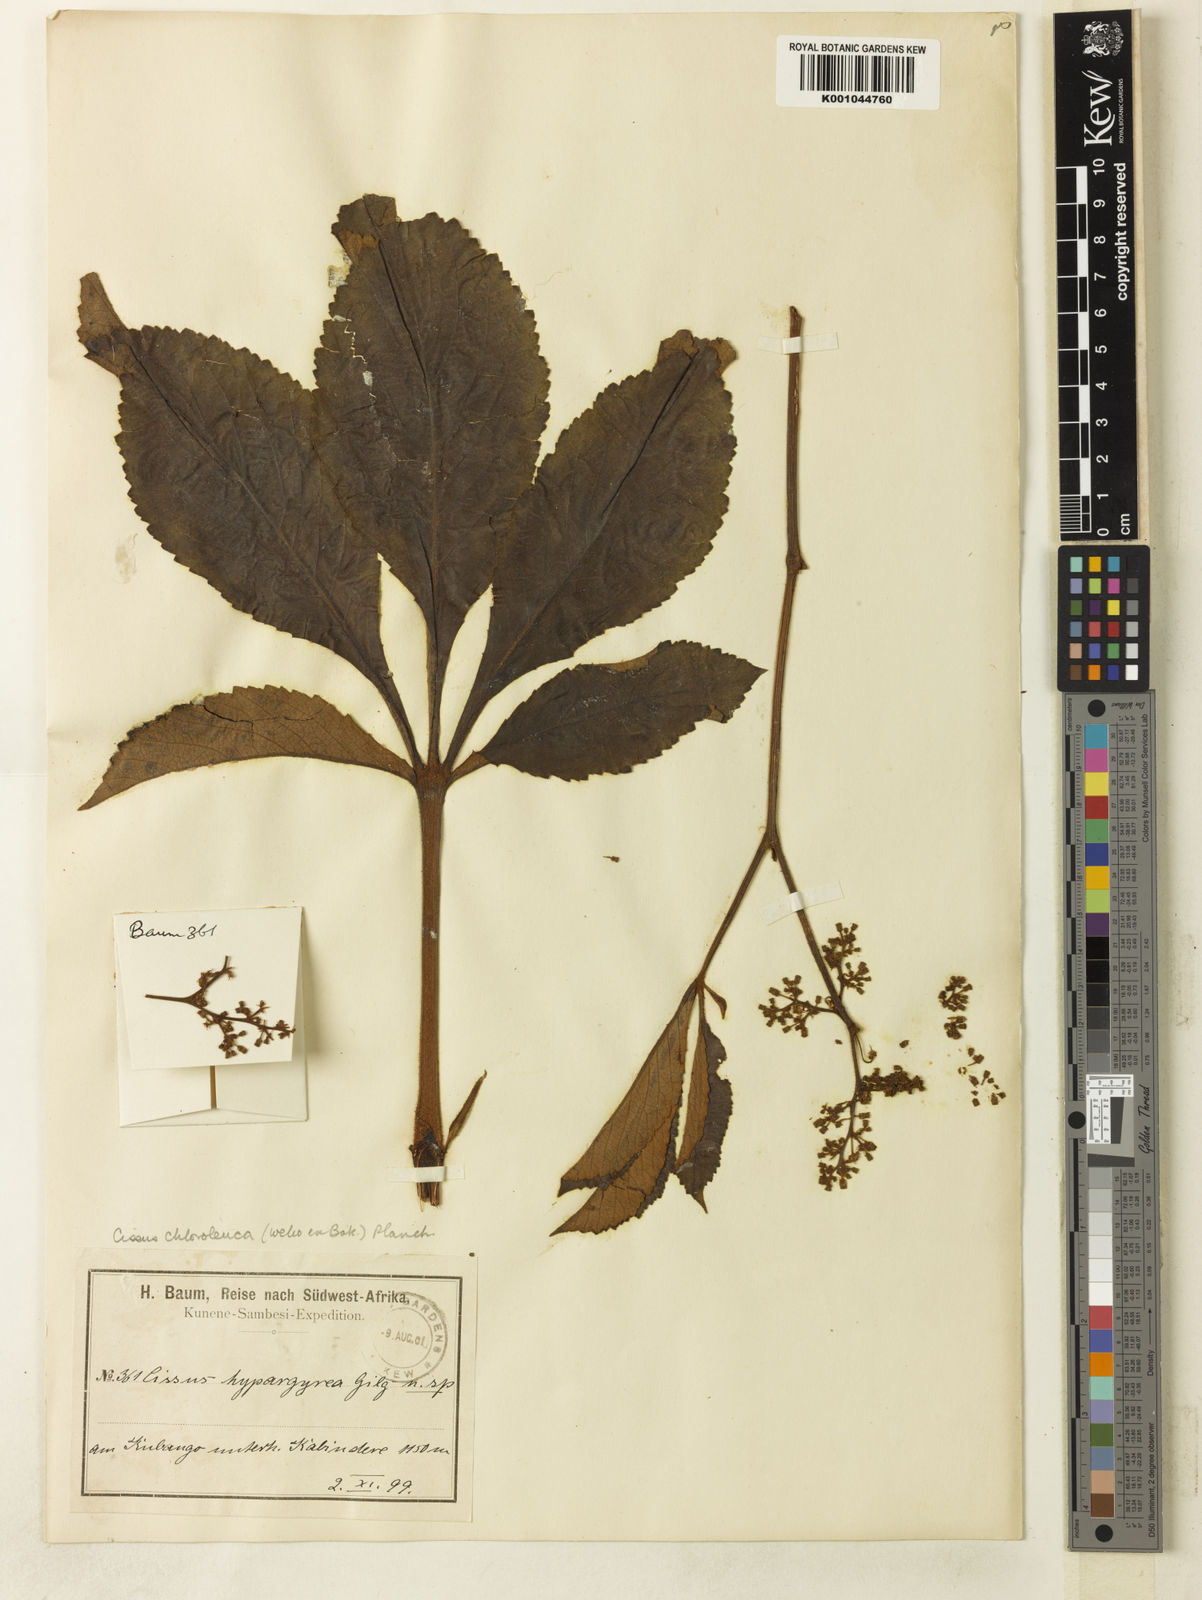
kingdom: Plantae
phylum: Tracheophyta
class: Magnoliopsida
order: Vitales
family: Vitaceae
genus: Cyphostemma
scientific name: Cyphostemma chloroleucum
